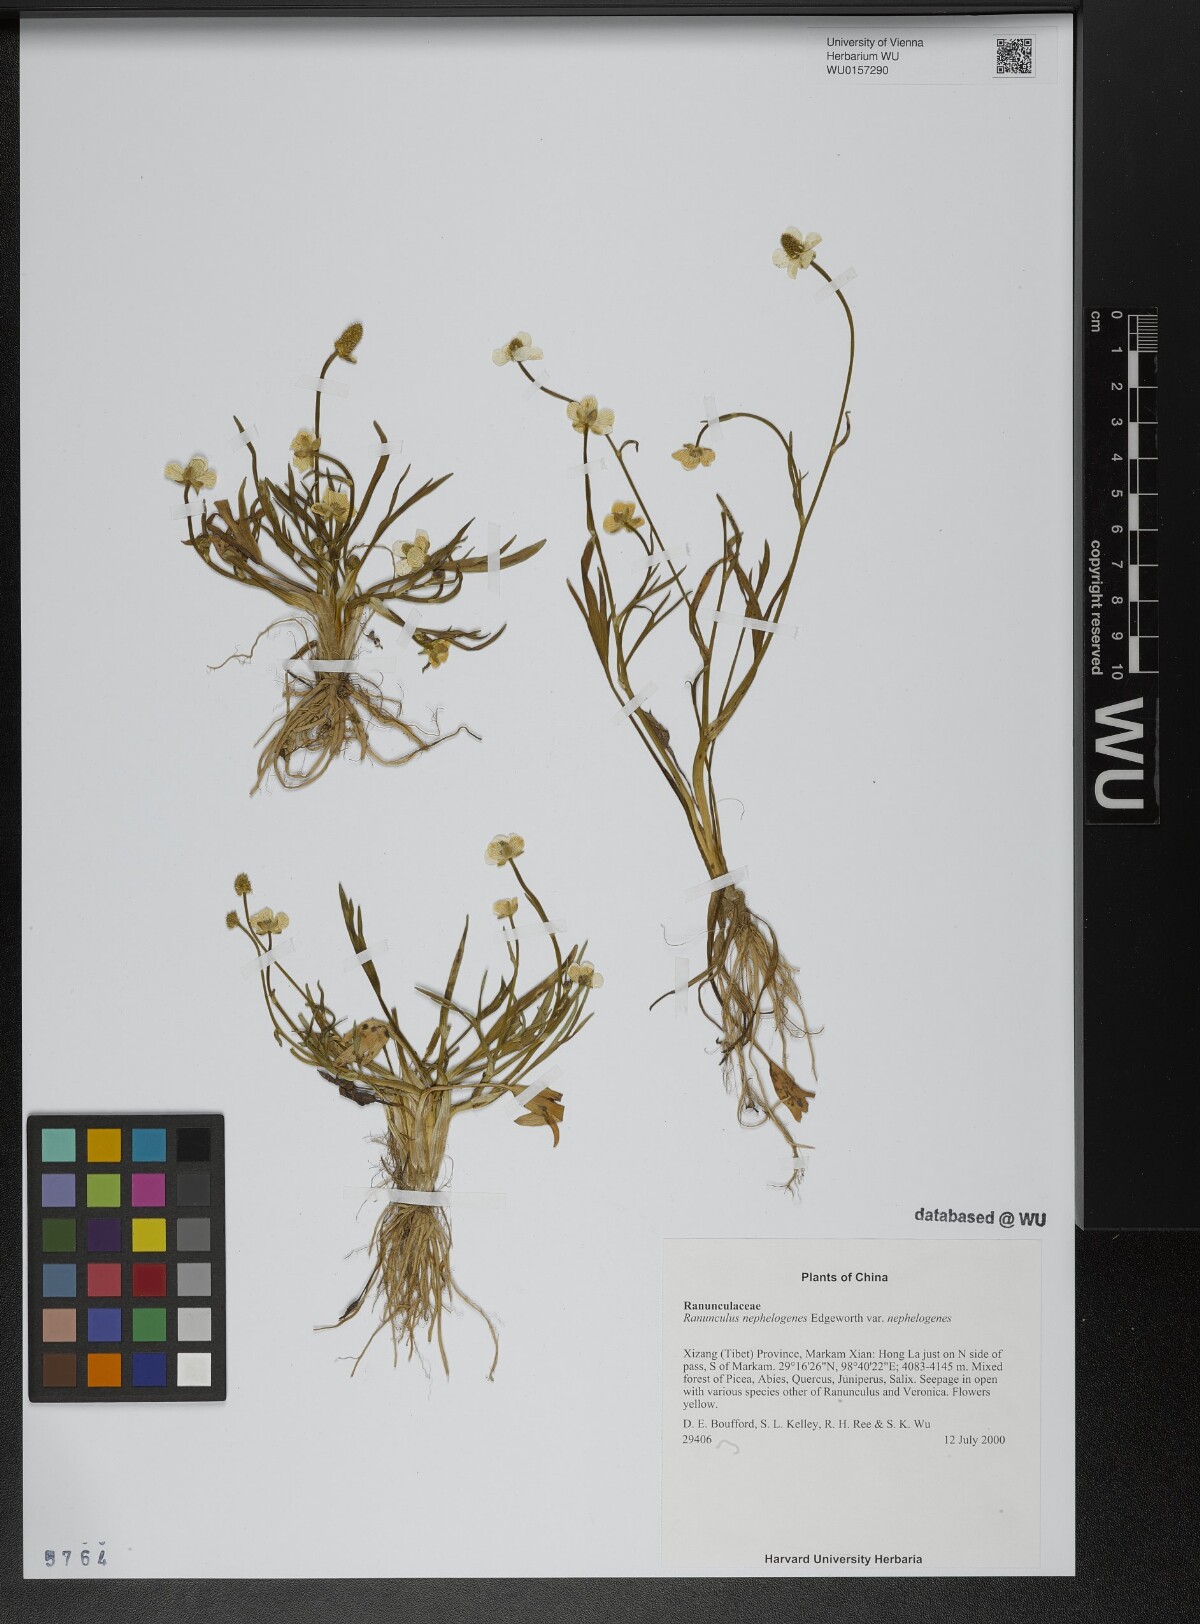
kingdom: Plantae
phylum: Tracheophyta
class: Magnoliopsida
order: Ranunculales
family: Ranunculaceae
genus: Ranunculus
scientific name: Ranunculus nephelogenes
